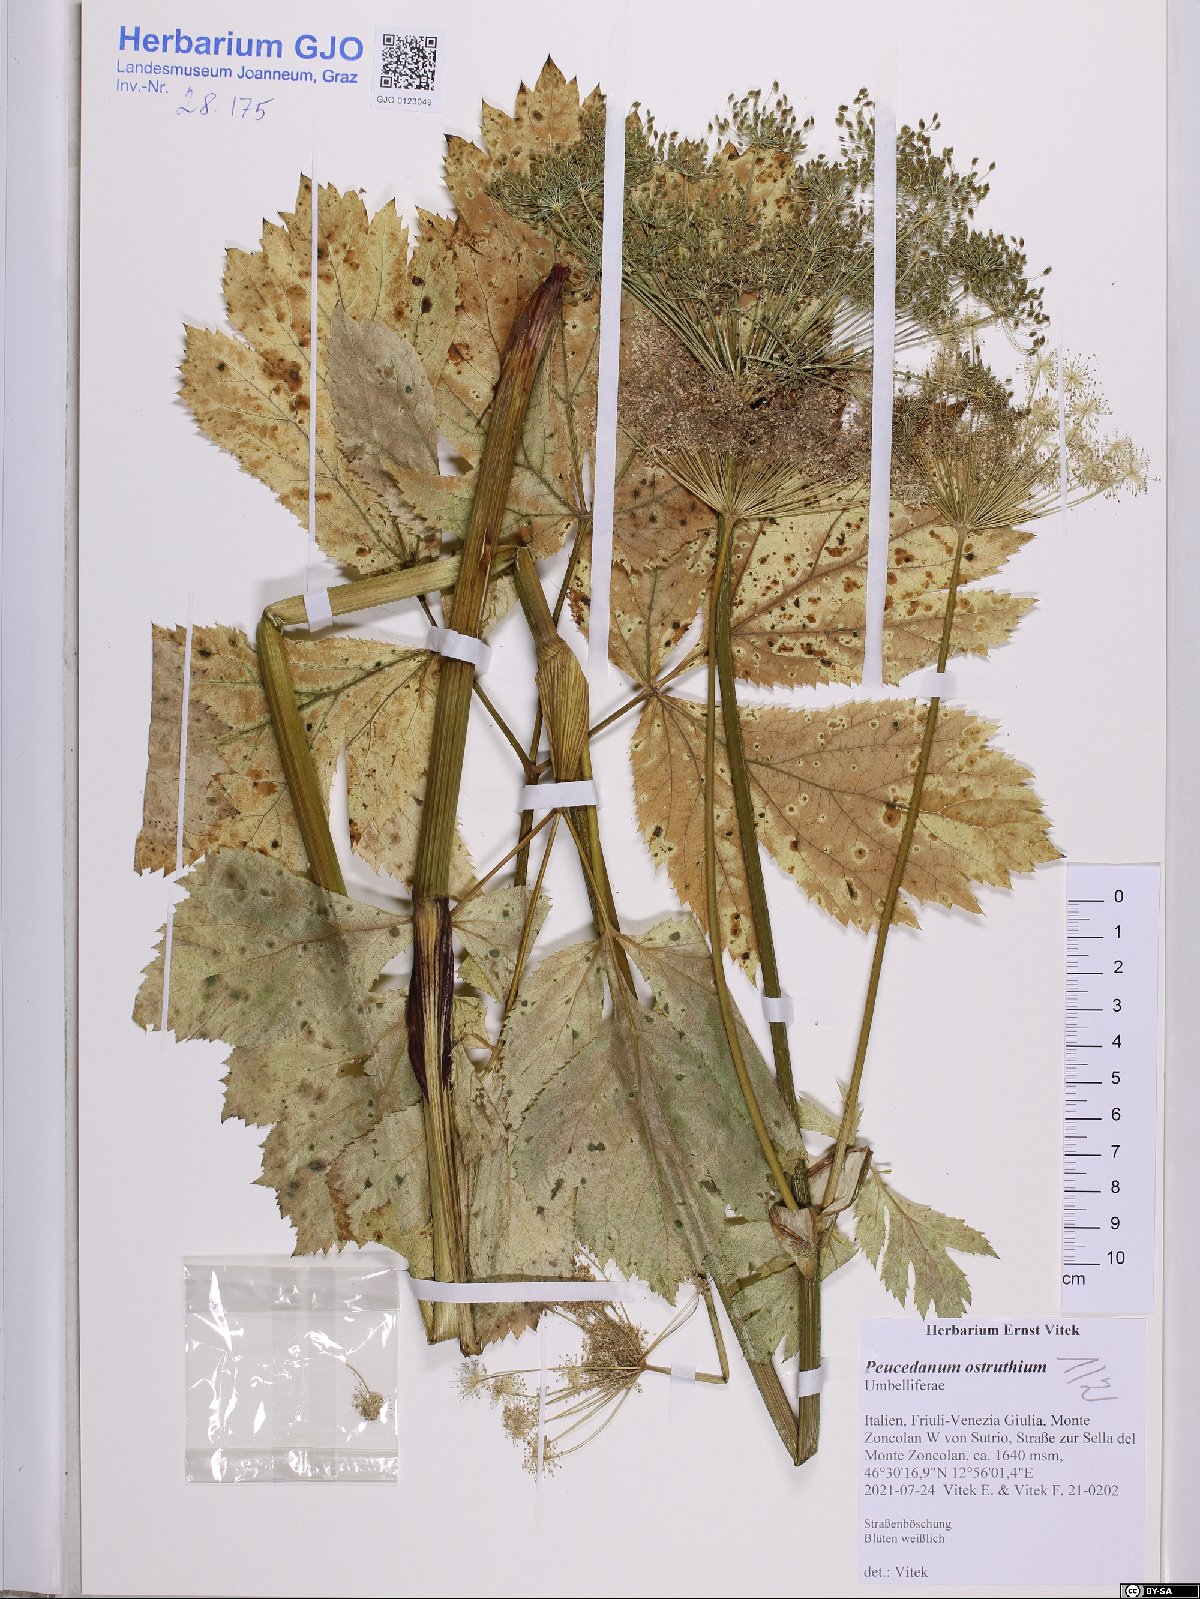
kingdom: Plantae
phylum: Tracheophyta
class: Magnoliopsida
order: Apiales
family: Apiaceae
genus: Imperatoria
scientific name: Imperatoria ostruthium
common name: Masterwort
